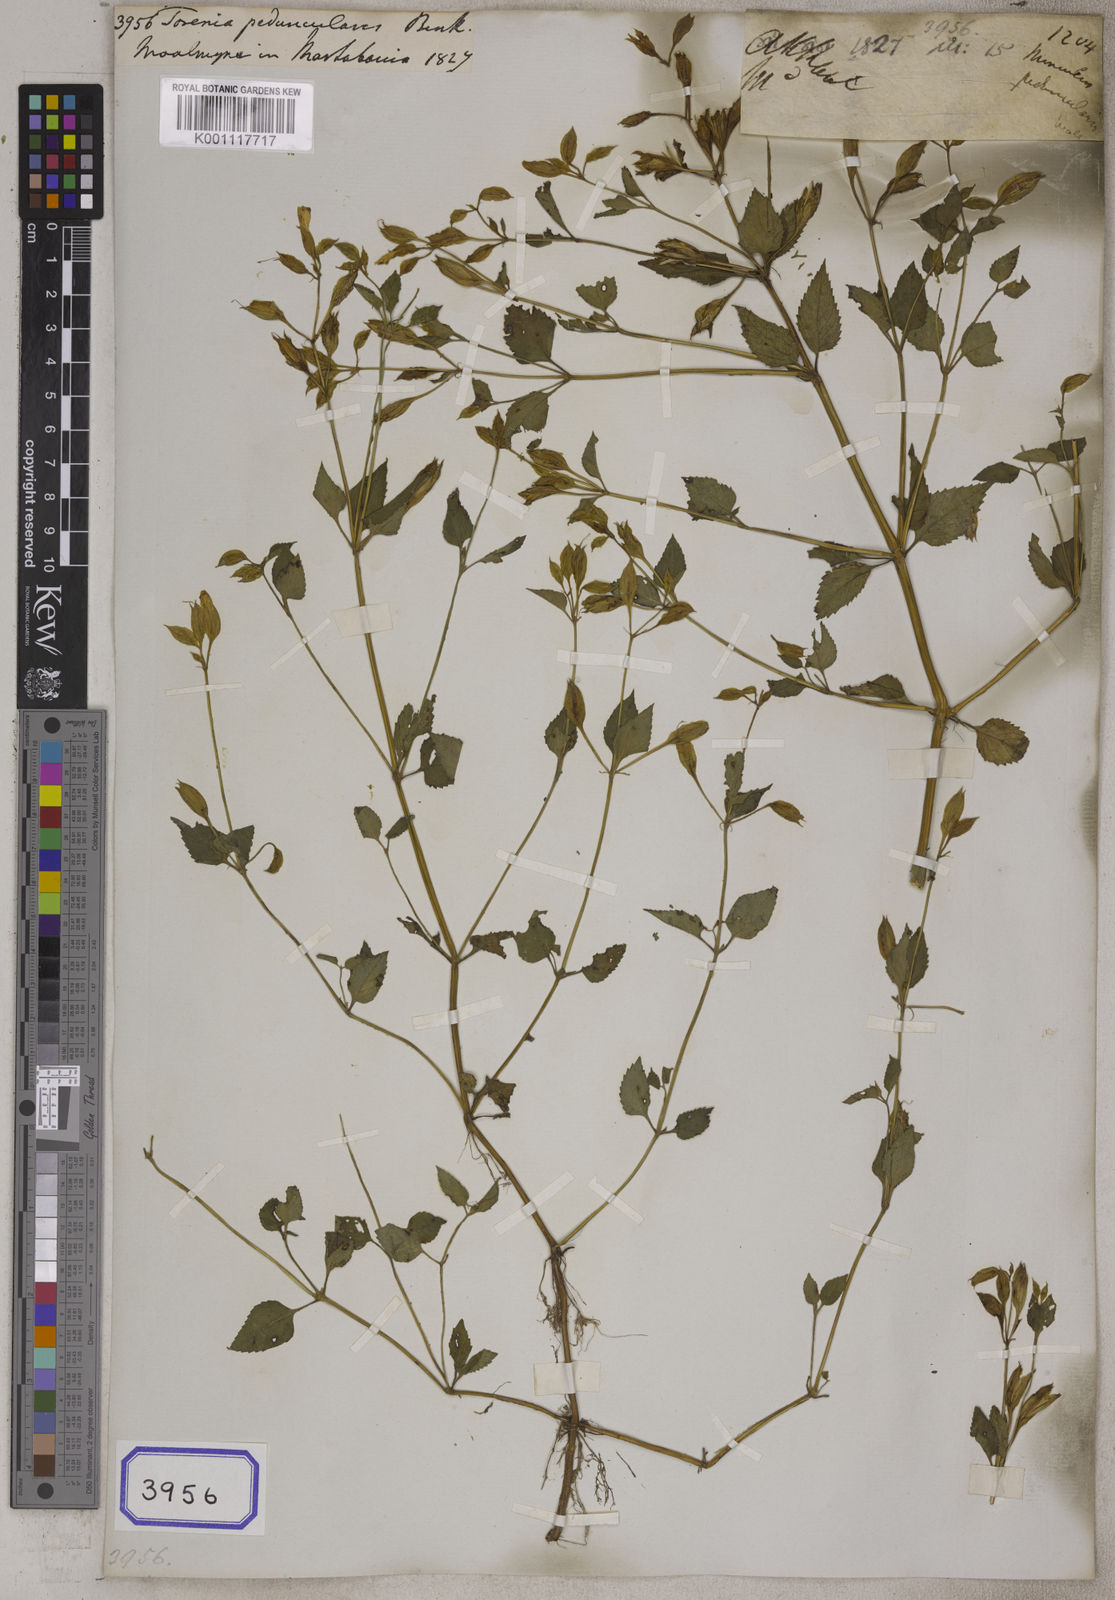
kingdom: Plantae
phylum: Tracheophyta
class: Magnoliopsida
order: Lamiales
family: Linderniaceae
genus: Torenia
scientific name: Torenia
